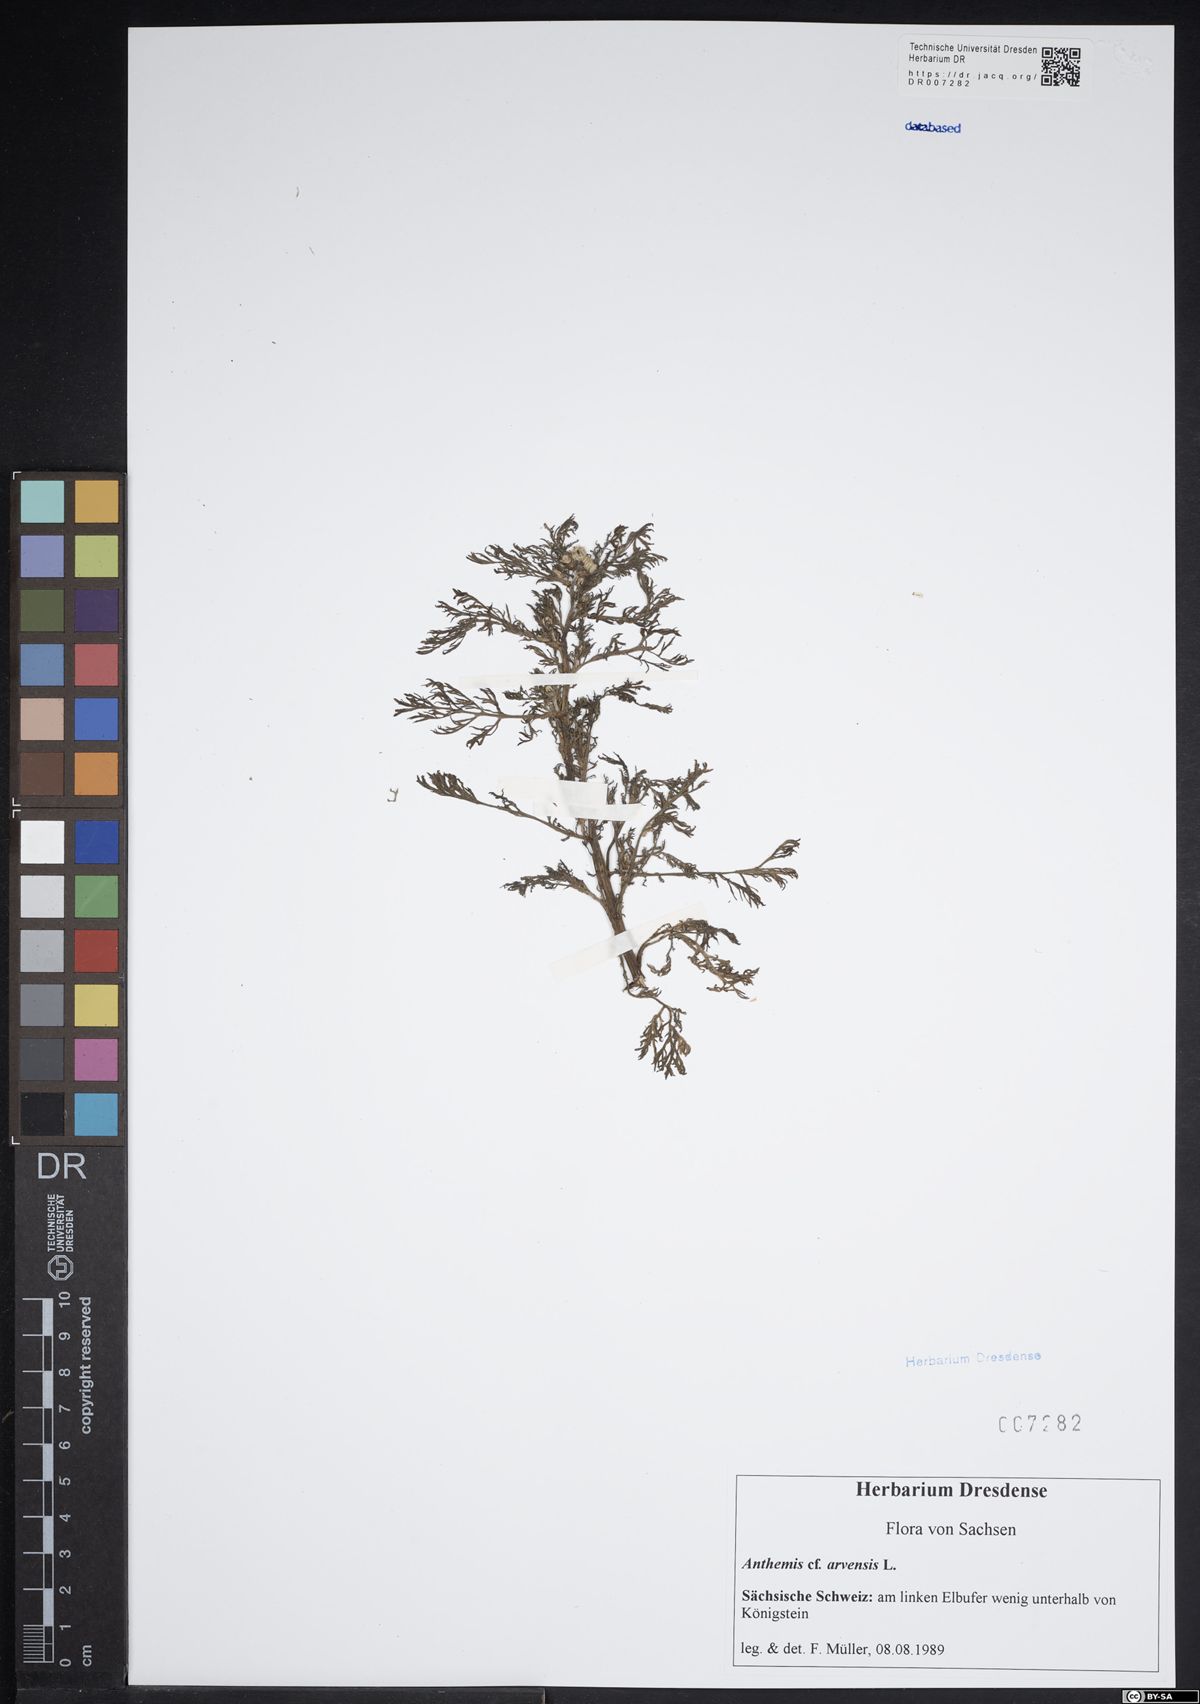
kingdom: Plantae
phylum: Tracheophyta
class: Magnoliopsida
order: Asterales
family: Asteraceae
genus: Anthemis
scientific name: Anthemis arvensis
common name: Corn chamomile
